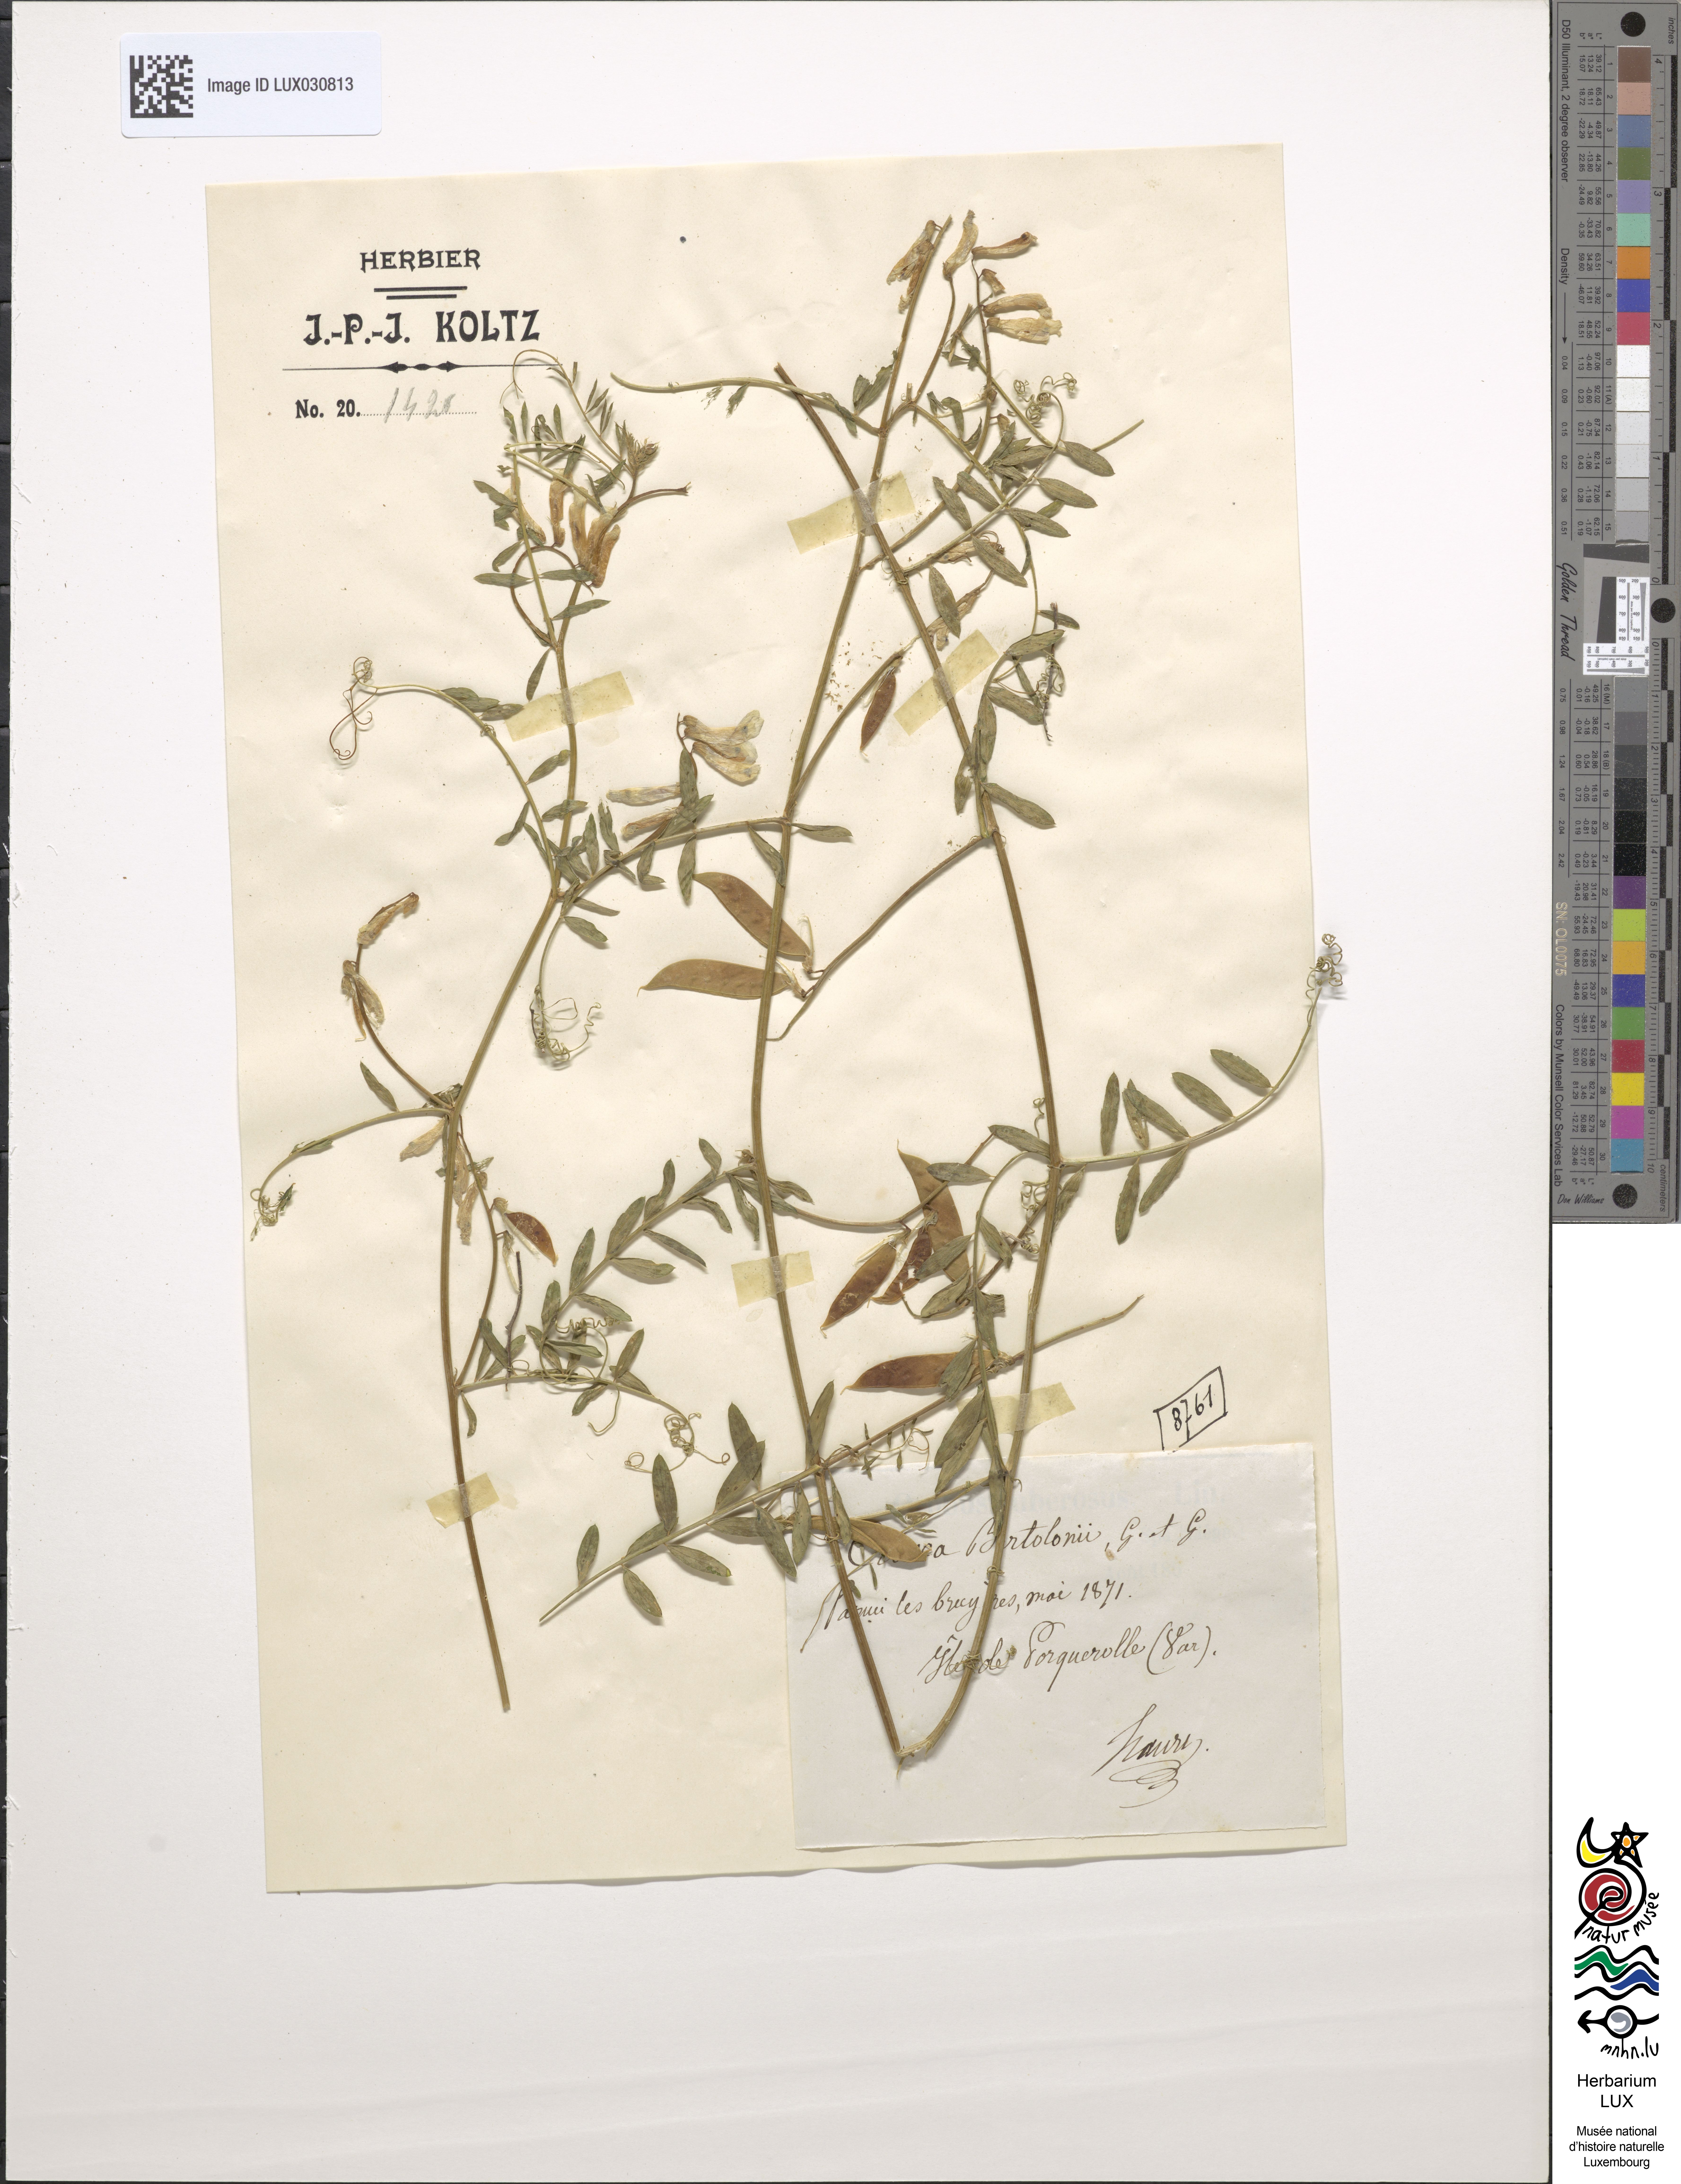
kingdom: Plantae
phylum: Tracheophyta
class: Magnoliopsida
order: Fabales
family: Fabaceae
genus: Vicia
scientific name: Vicia cracca
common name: Bird vetch
